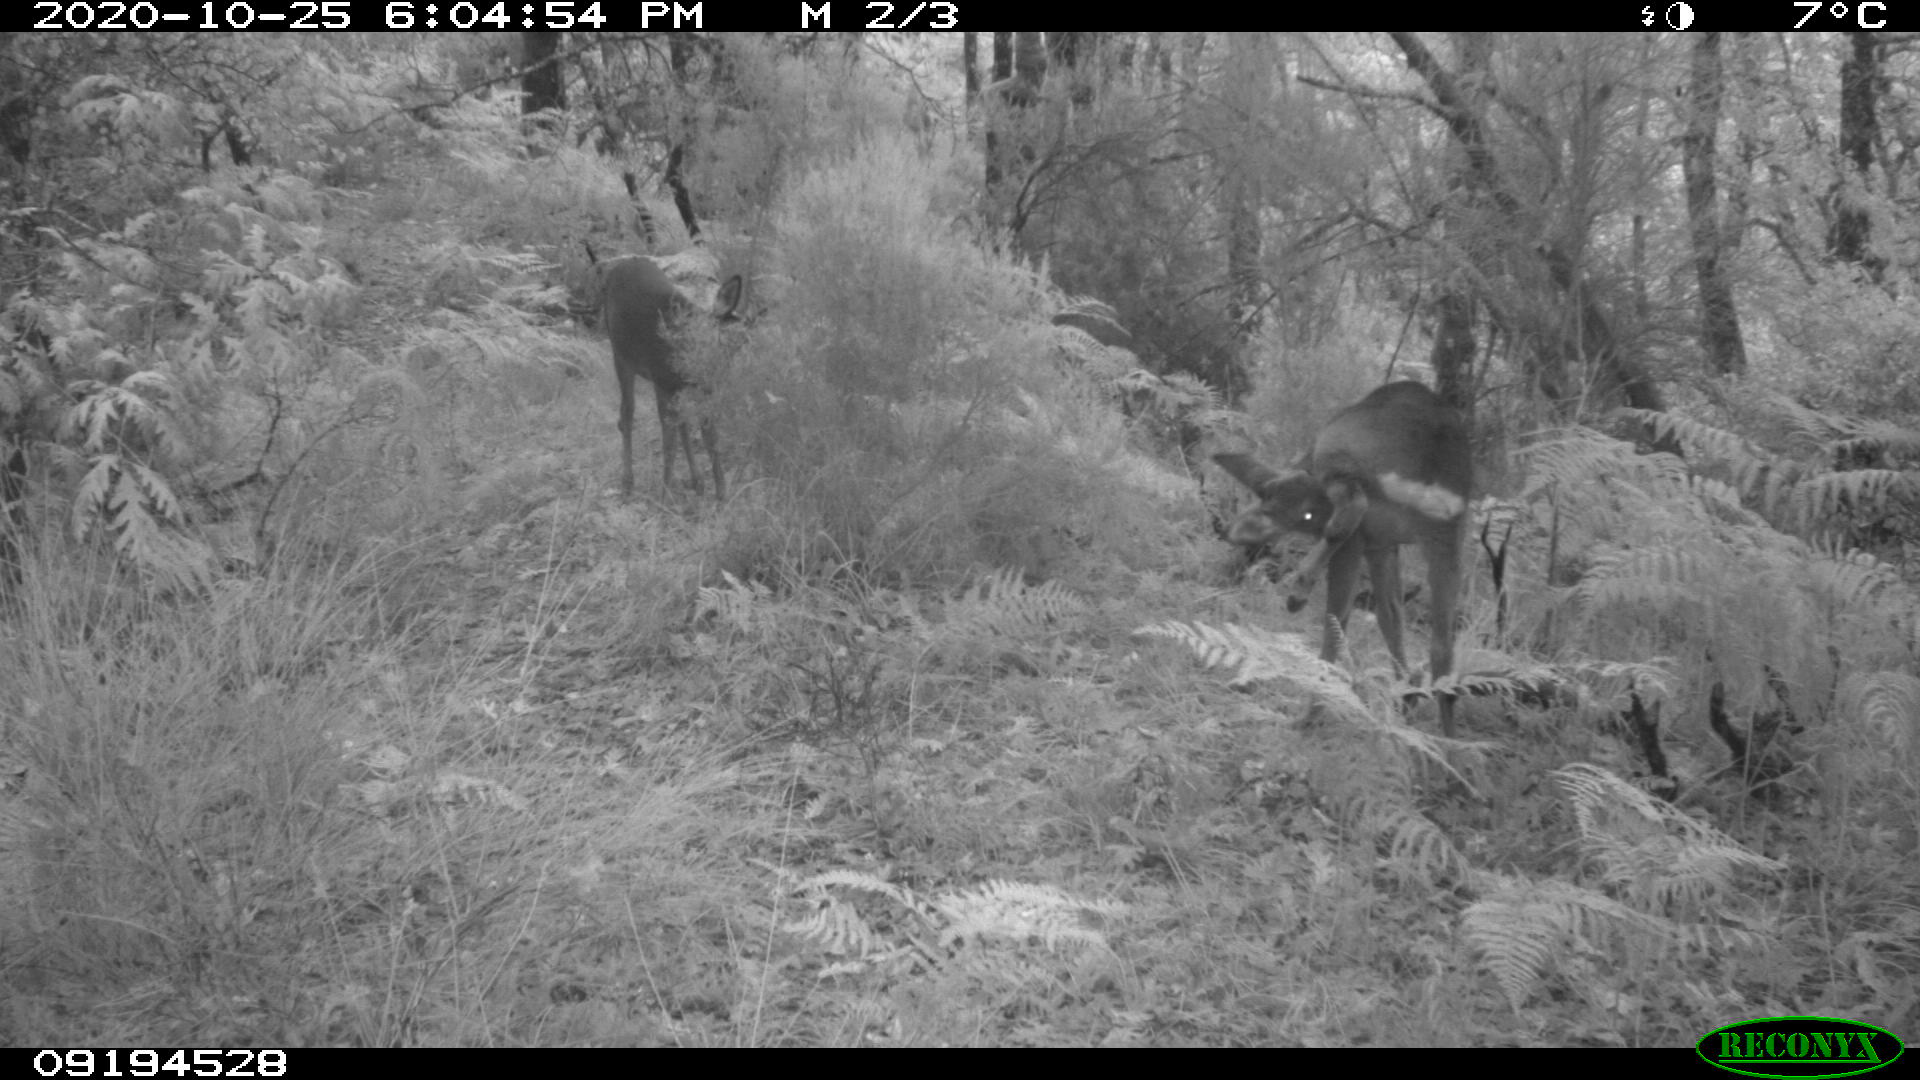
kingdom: Animalia
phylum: Chordata
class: Mammalia
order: Artiodactyla
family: Cervidae
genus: Capreolus
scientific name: Capreolus capreolus
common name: Western roe deer
